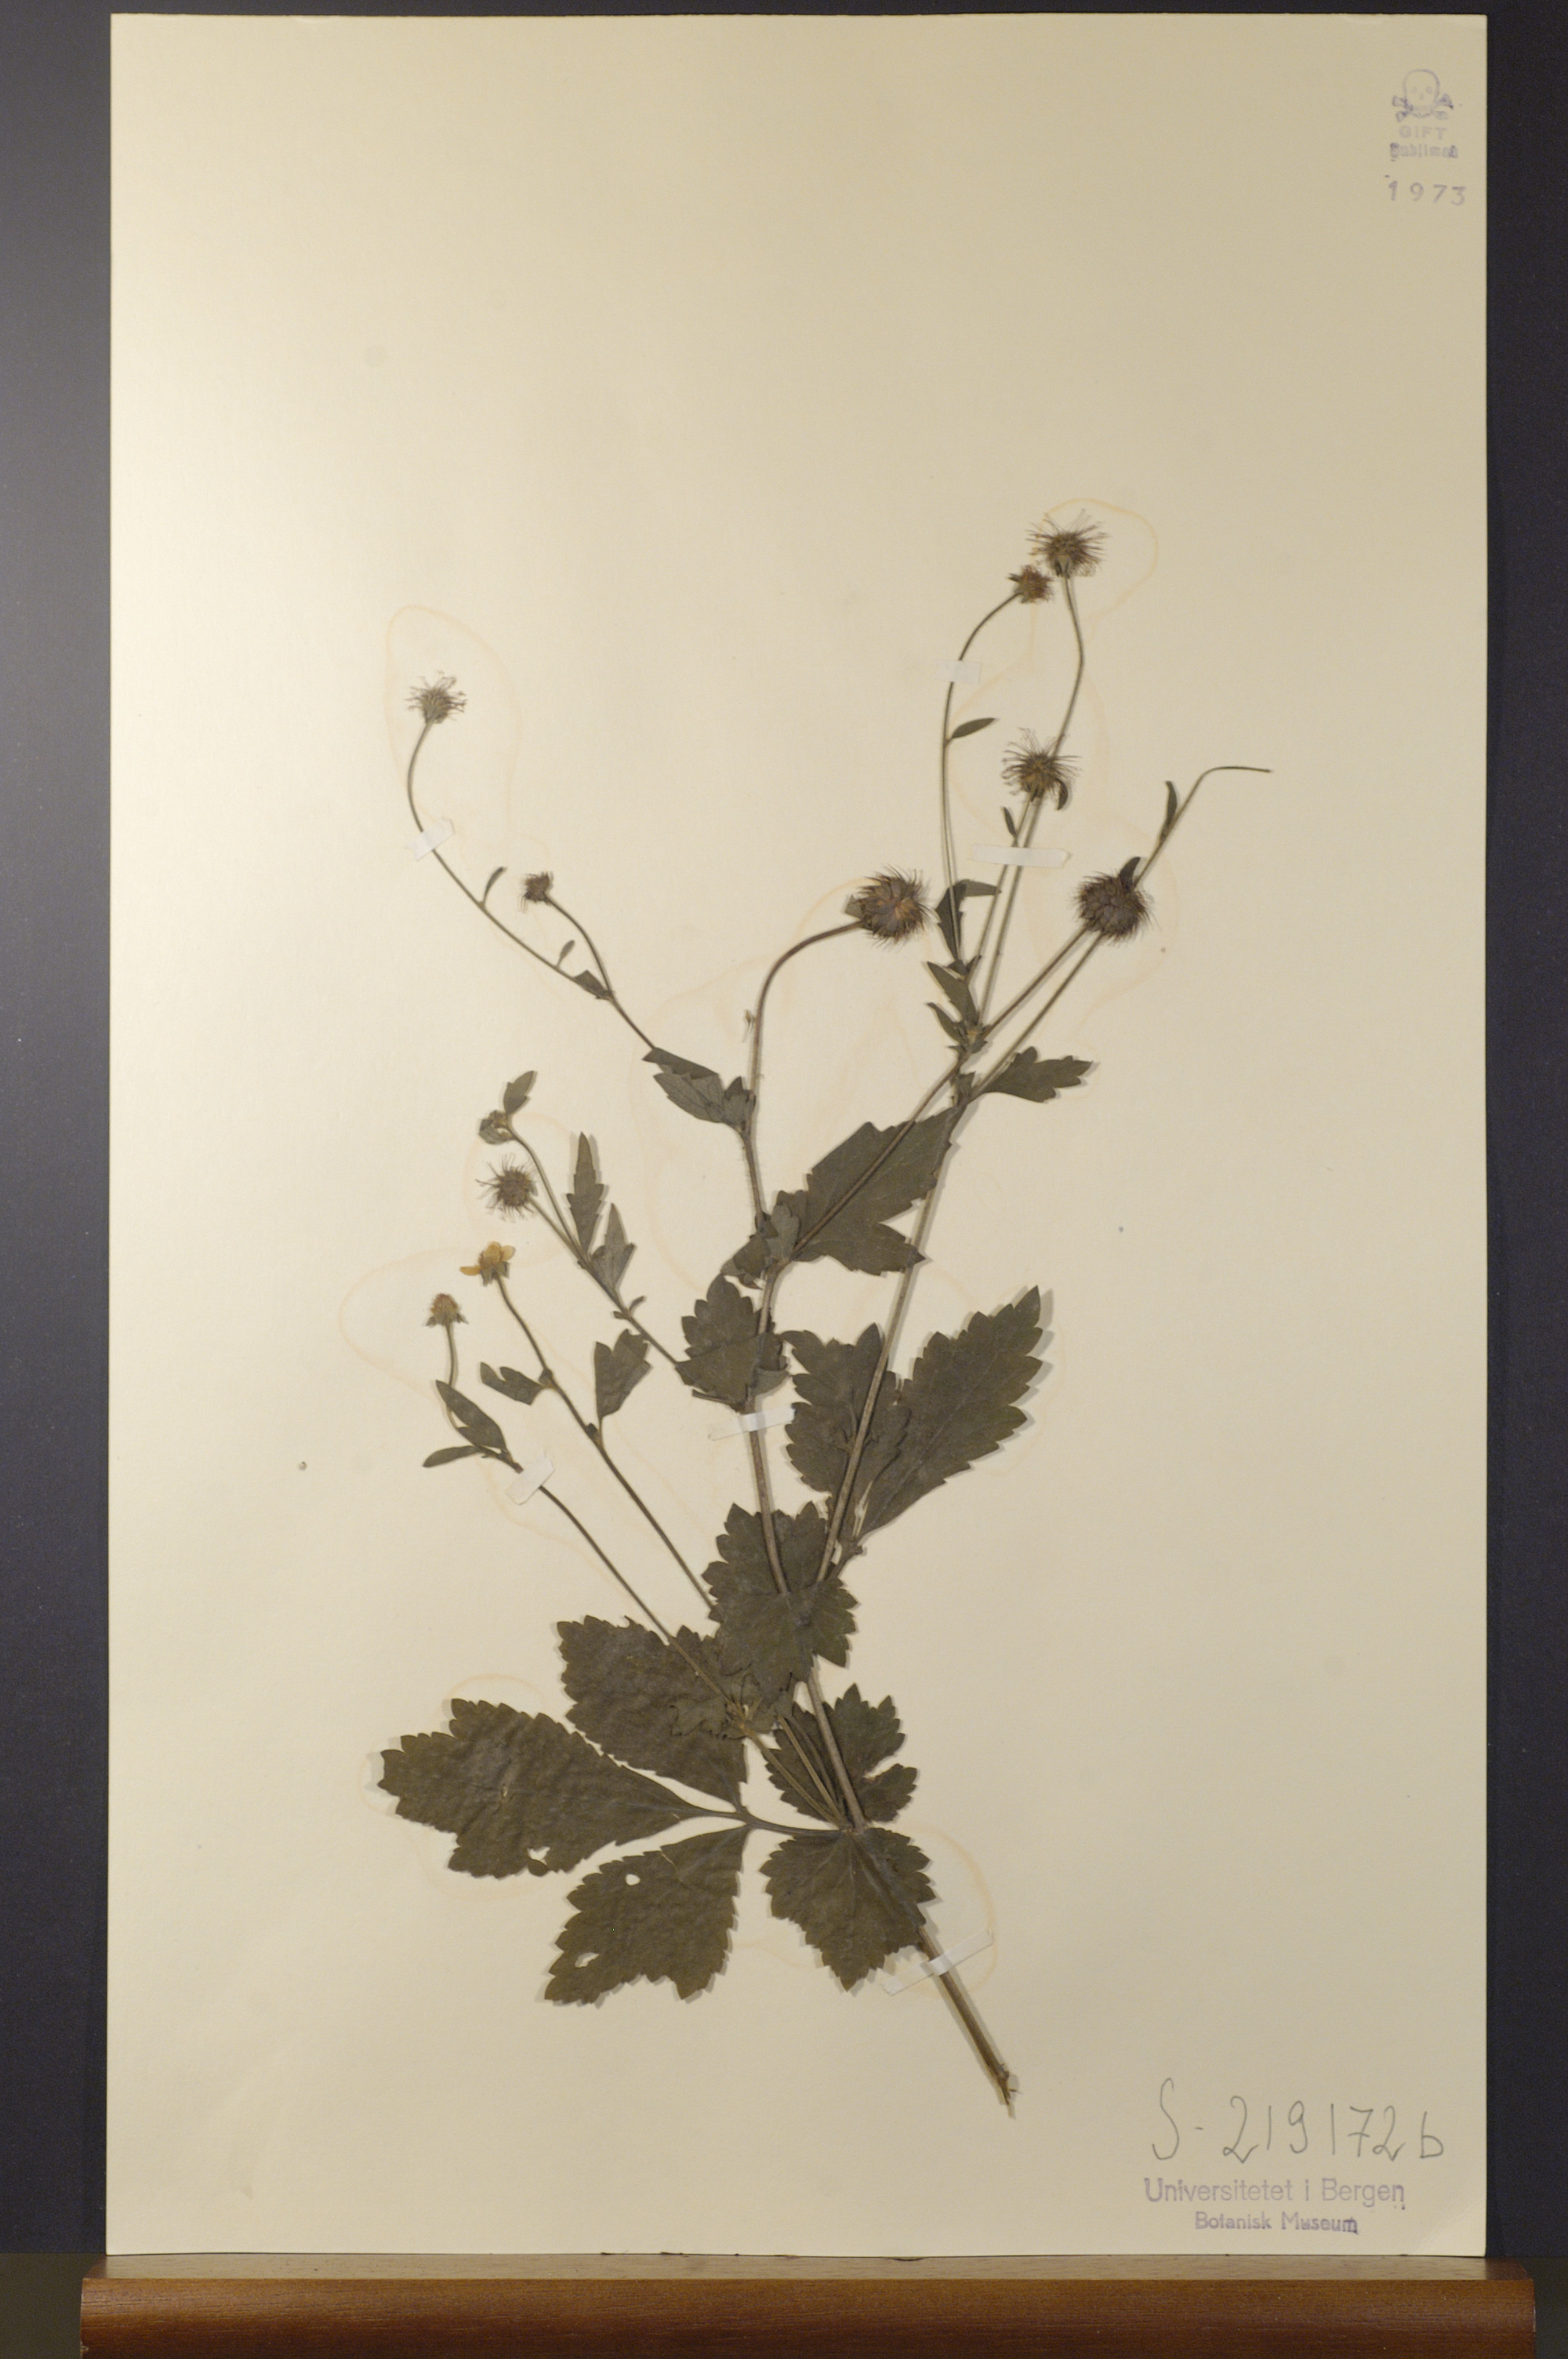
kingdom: Plantae
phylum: Tracheophyta
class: Magnoliopsida
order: Rosales
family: Rosaceae
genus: Geum
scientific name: Geum urbanum
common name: Wood avens
